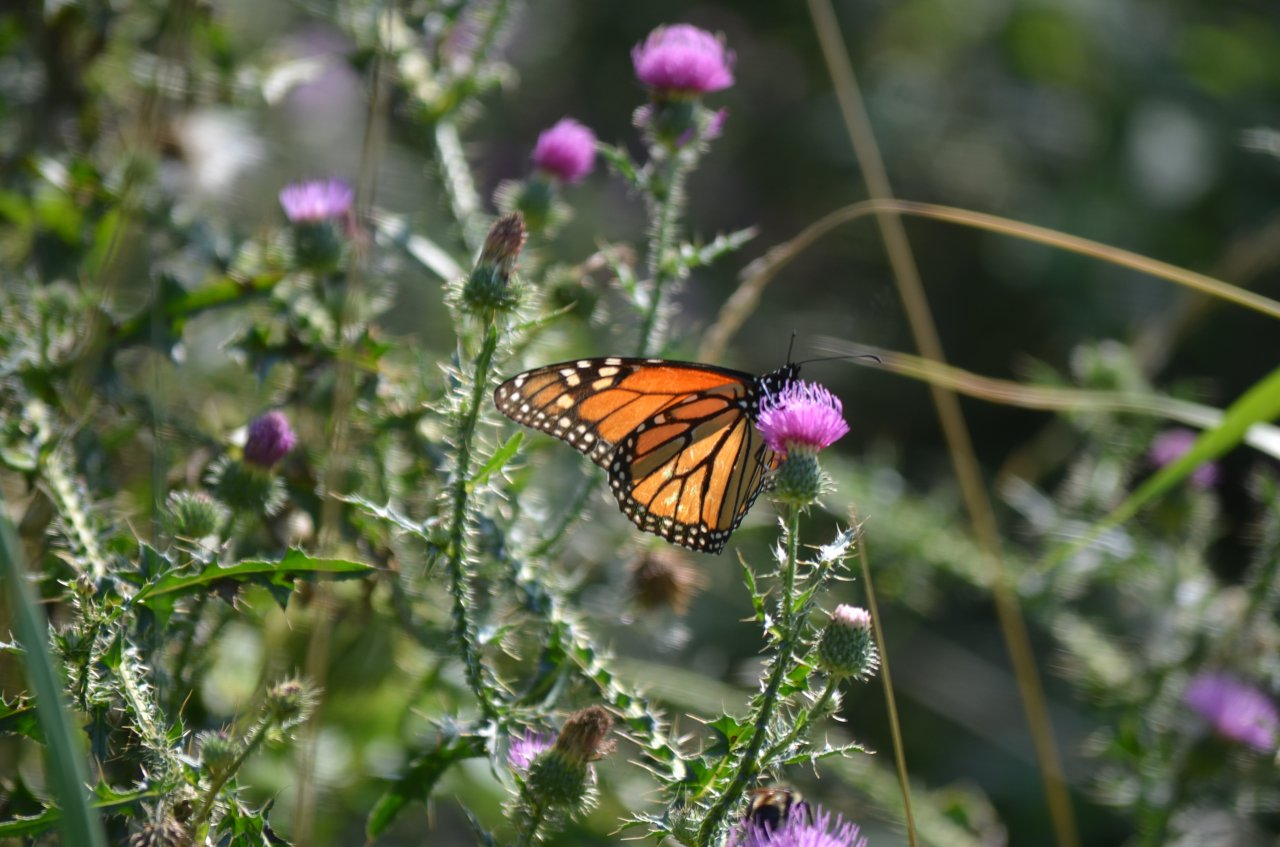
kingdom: Animalia
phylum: Arthropoda
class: Insecta
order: Lepidoptera
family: Nymphalidae
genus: Danaus
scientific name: Danaus plexippus
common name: Monarch
